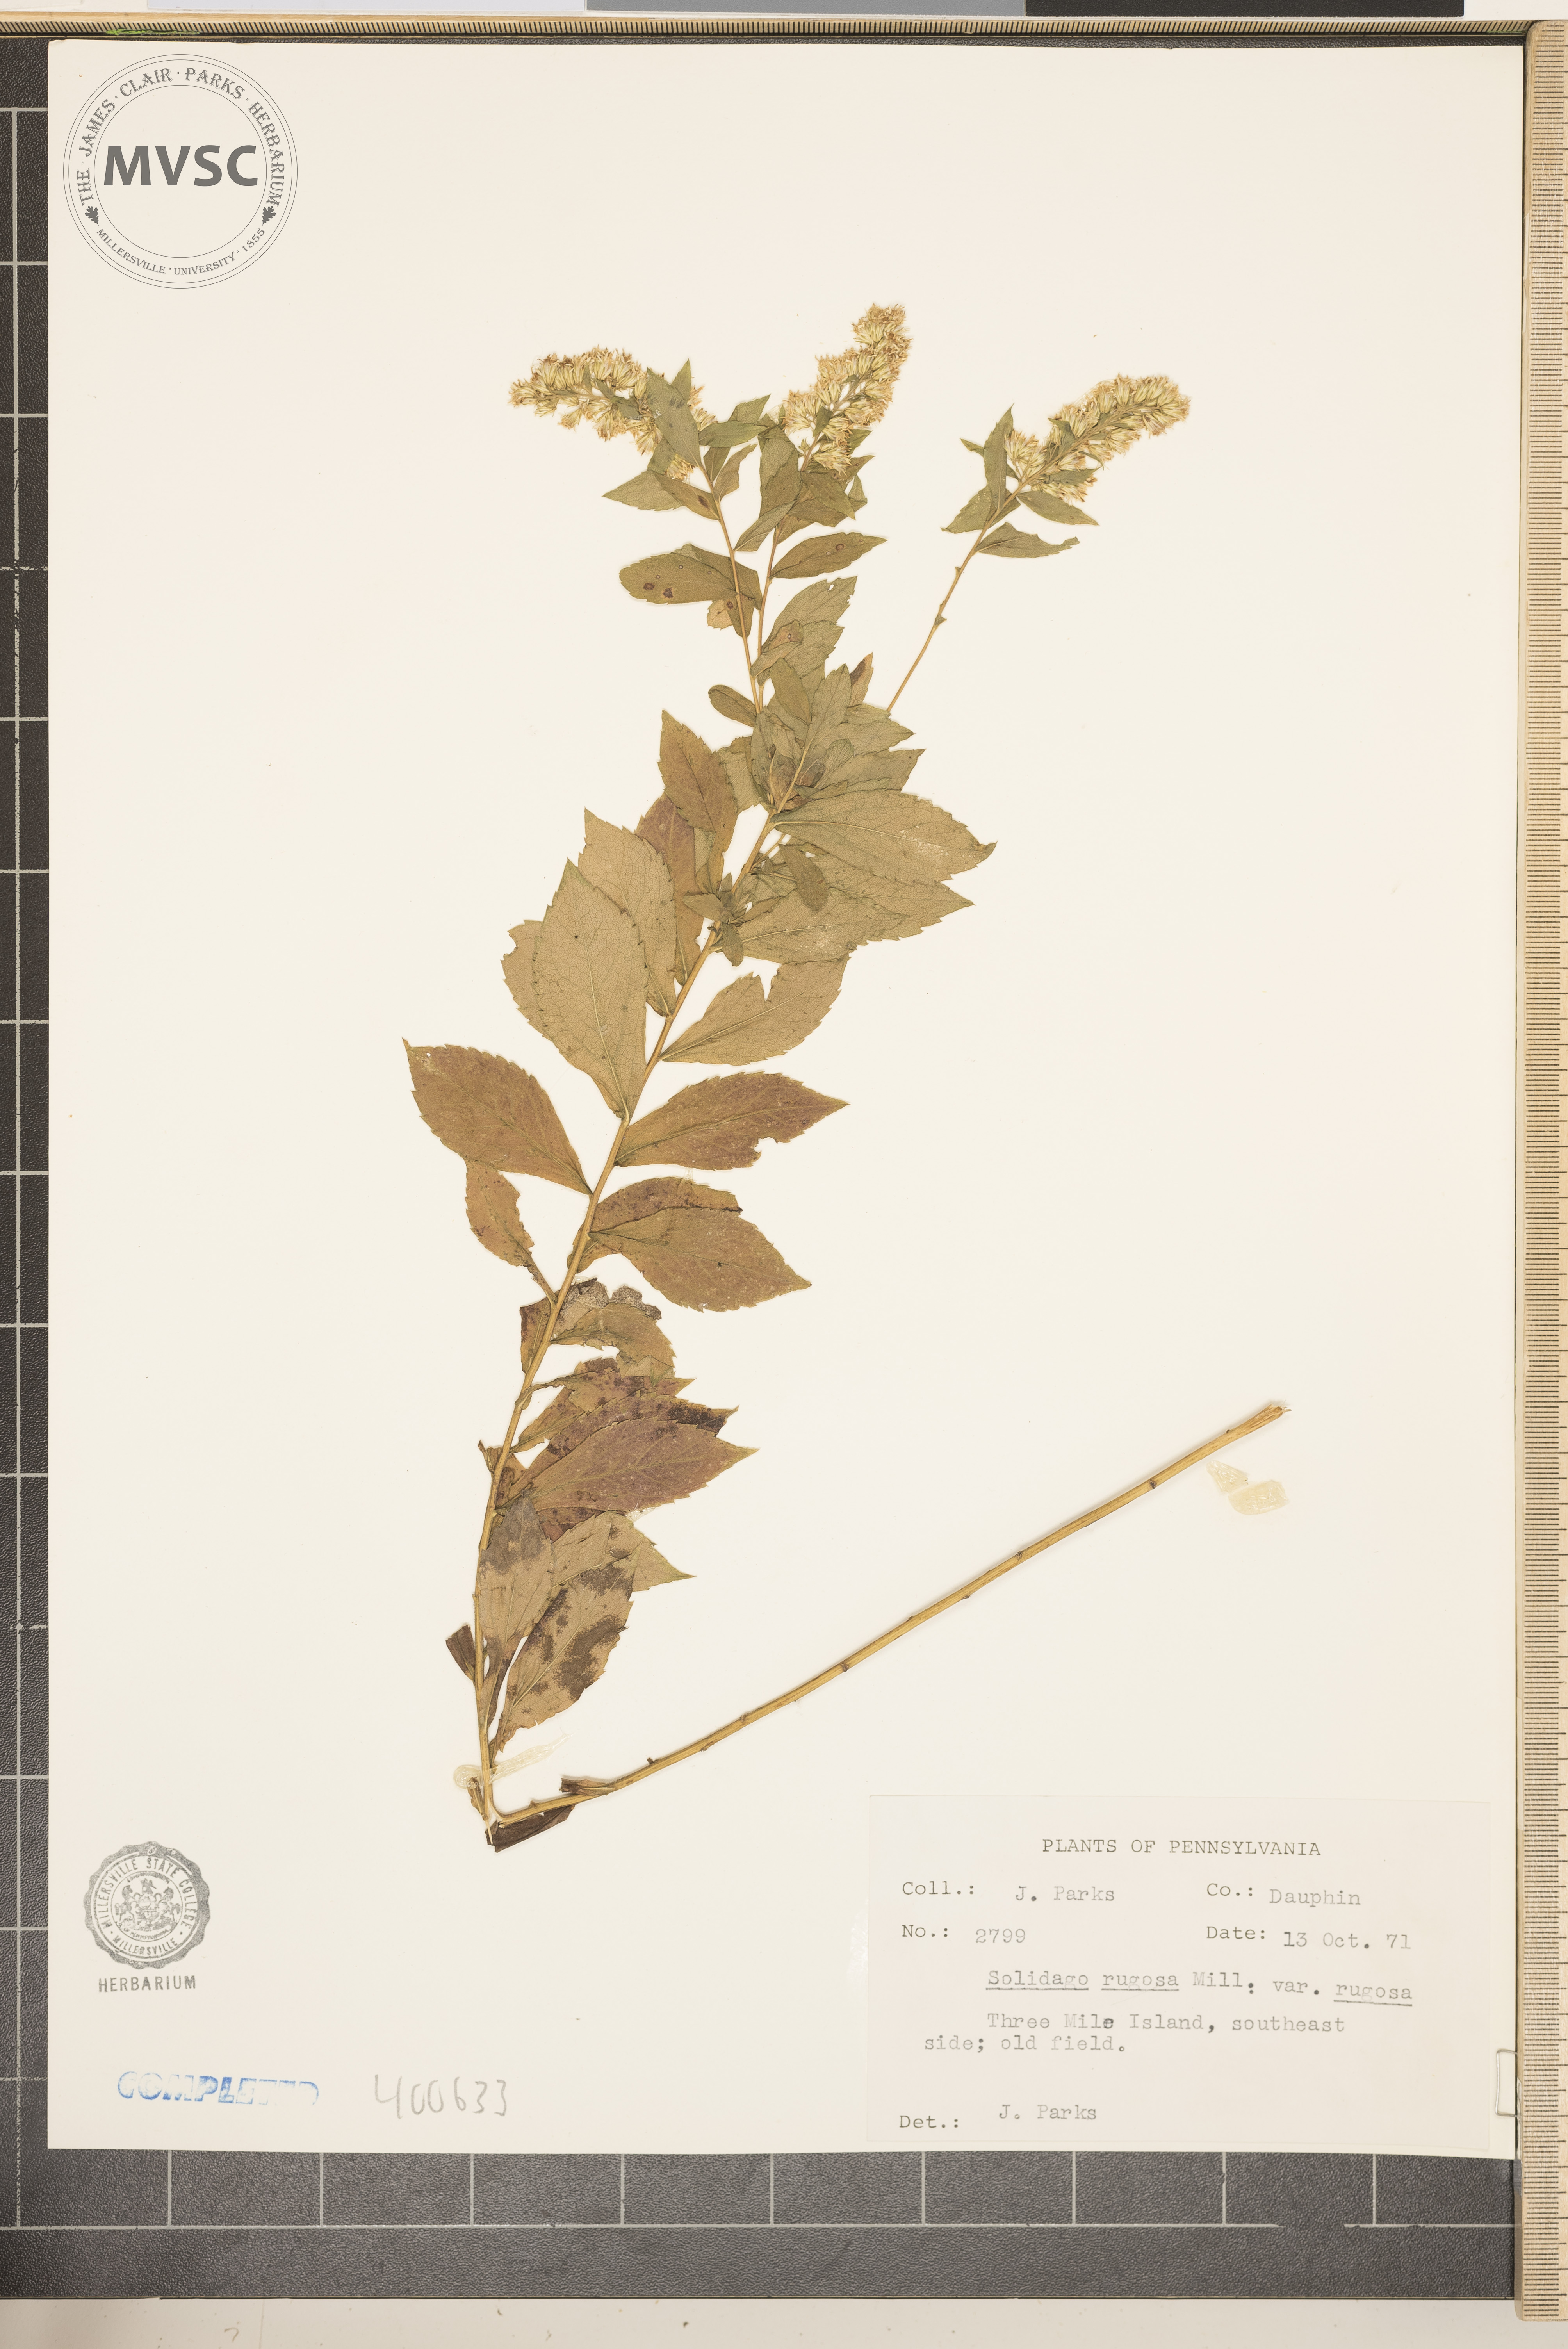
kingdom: Plantae
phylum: Tracheophyta
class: Magnoliopsida
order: Asterales
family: Asteraceae
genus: Solidago
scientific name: Solidago rugosa
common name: goldenrod
